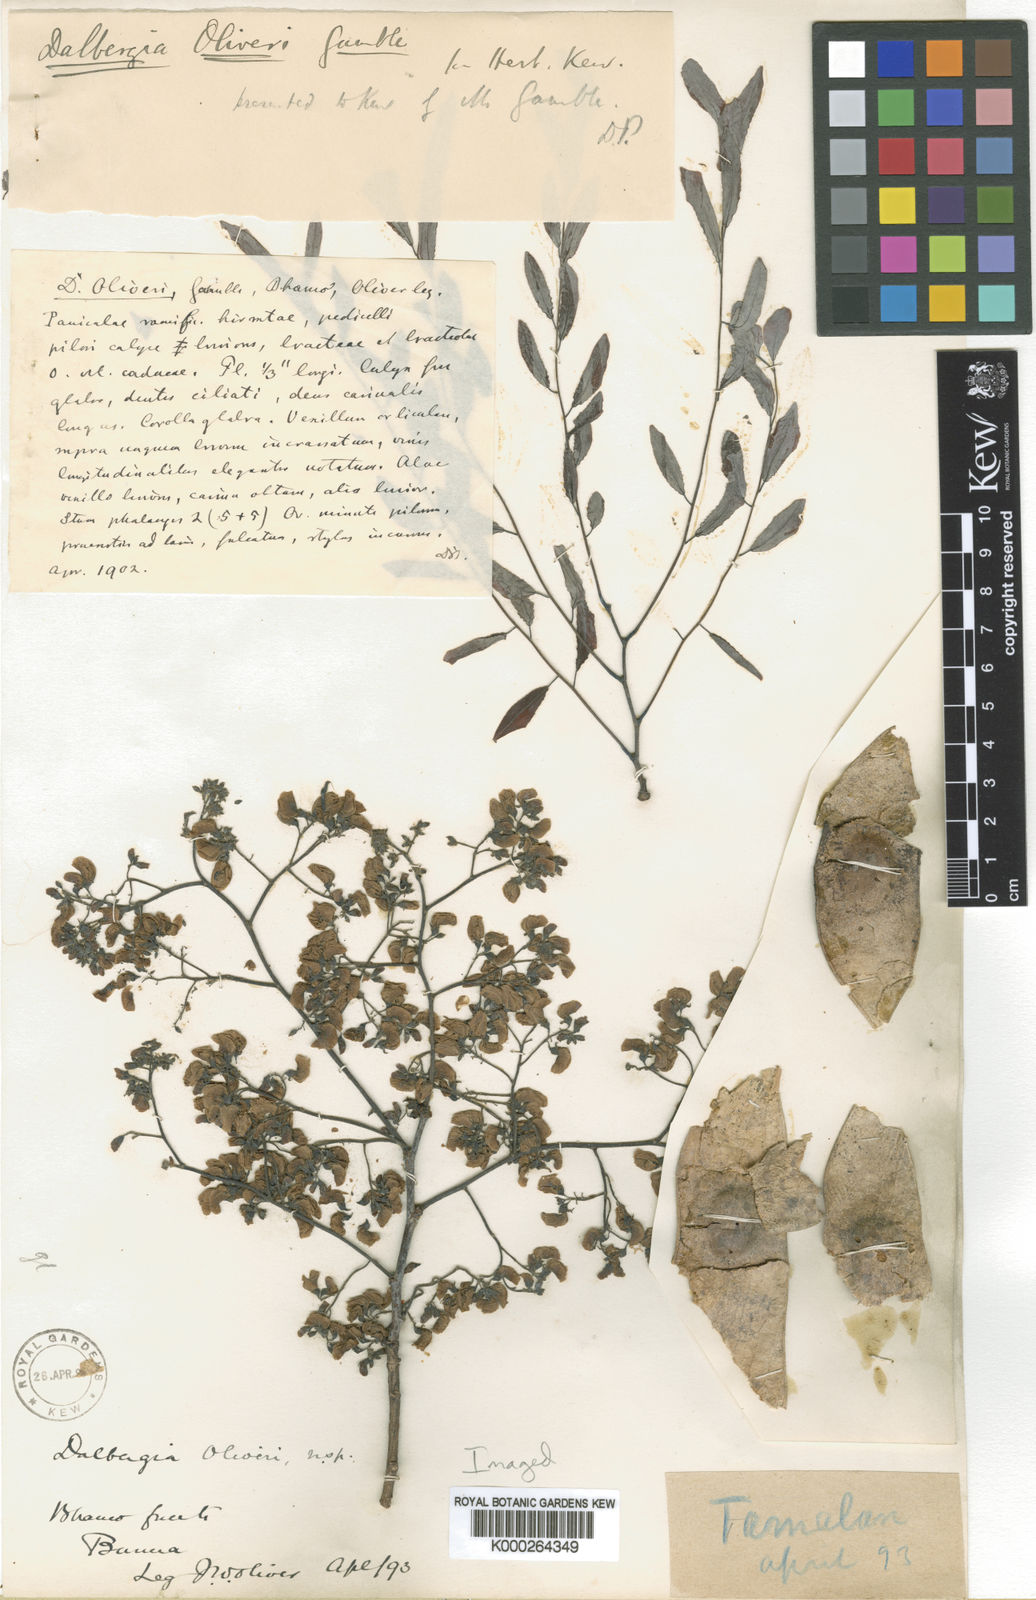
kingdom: Plantae
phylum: Tracheophyta
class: Magnoliopsida
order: Fabales
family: Fabaceae
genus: Dalbergia
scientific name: Dalbergia oliveri
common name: Burmese rosewood
